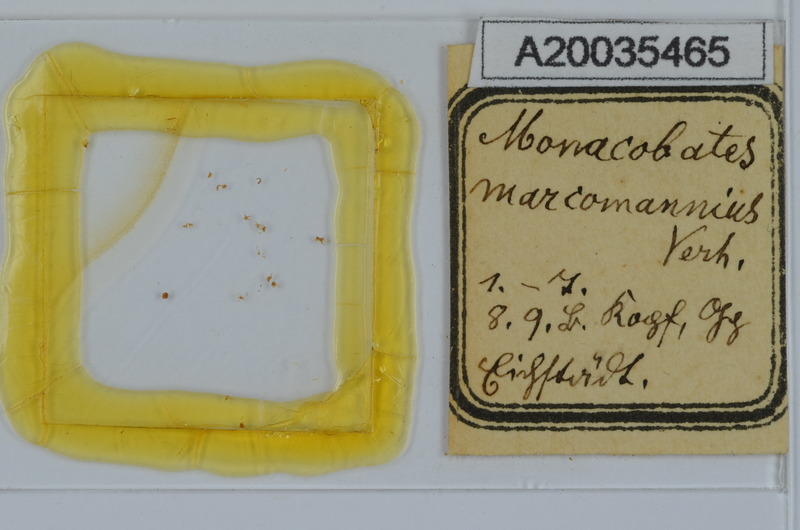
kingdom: Animalia
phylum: Arthropoda
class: Diplopoda
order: Julida
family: Blaniulidae
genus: Boreoiulus
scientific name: Boreoiulus tenuis
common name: Slender snake millipede
